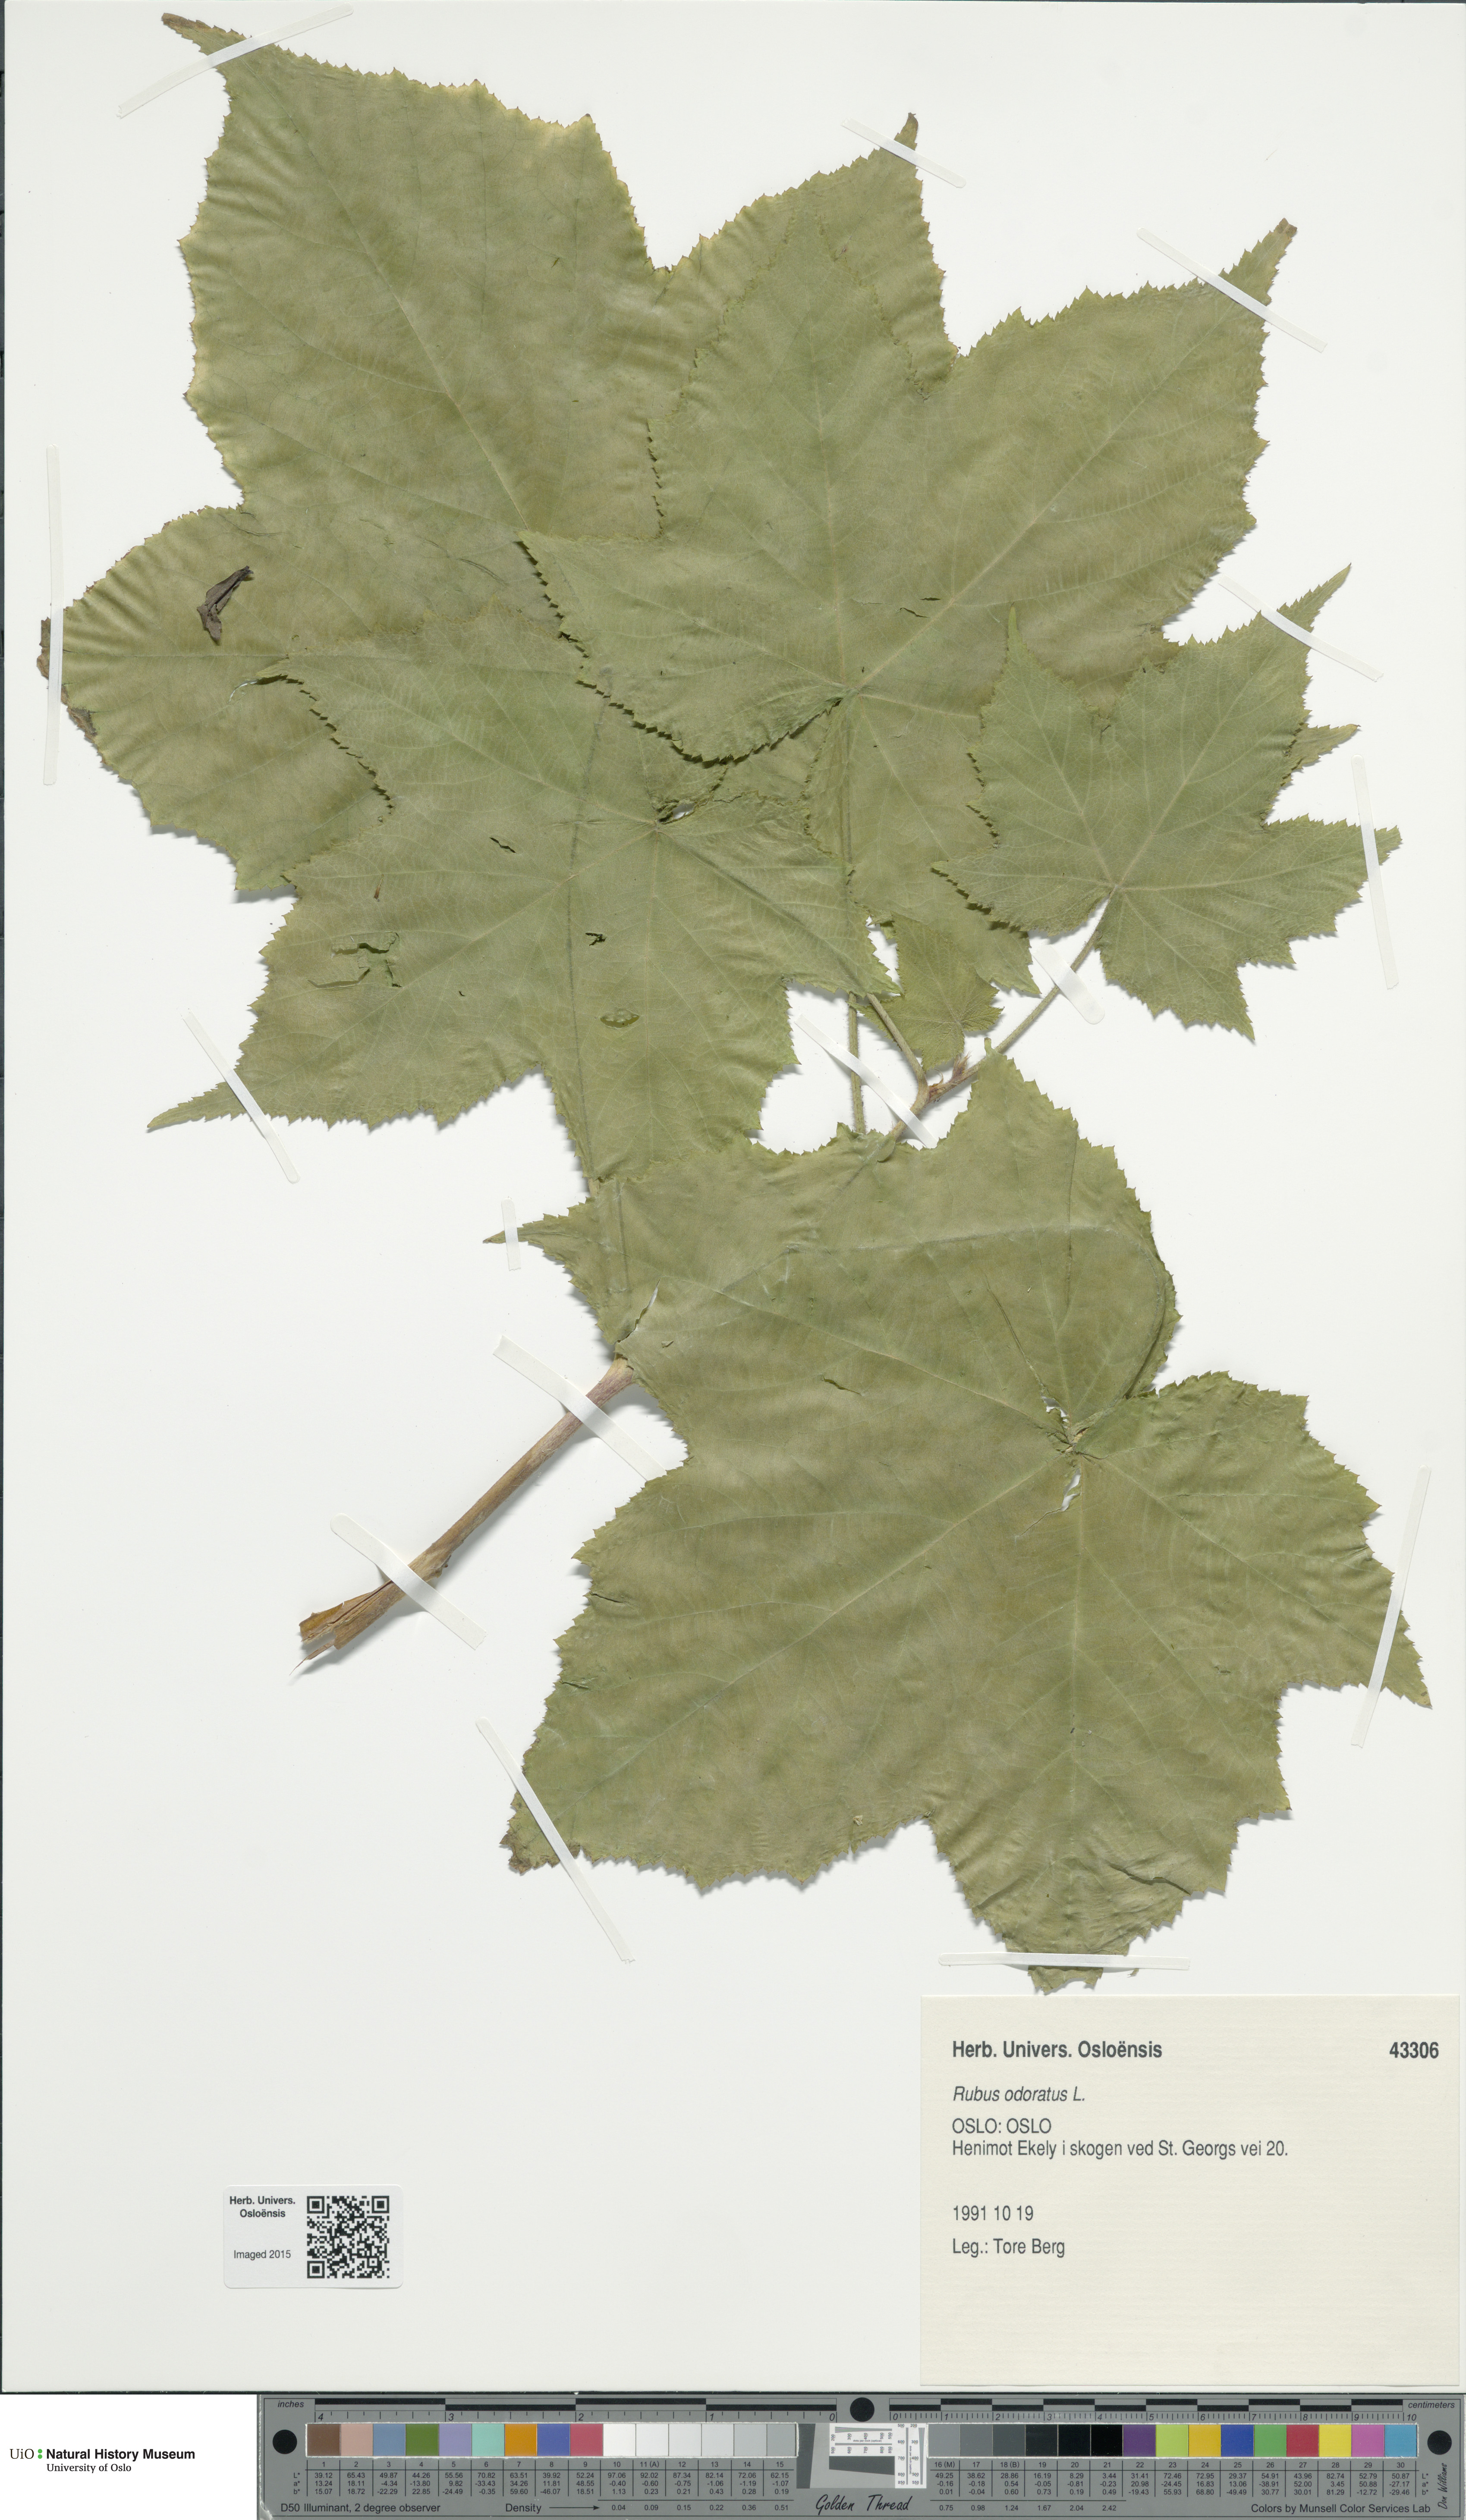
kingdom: Plantae
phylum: Tracheophyta
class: Magnoliopsida
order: Rosales
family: Rosaceae
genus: Rubus
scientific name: Rubus odoratus
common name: Purple-flowered raspberry
